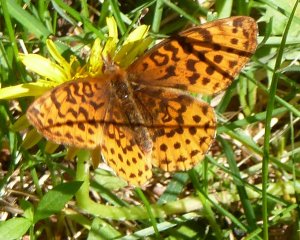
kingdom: Animalia
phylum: Arthropoda
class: Insecta
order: Lepidoptera
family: Nymphalidae
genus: Clossiana
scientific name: Clossiana toddi
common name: Meadow Fritillary
